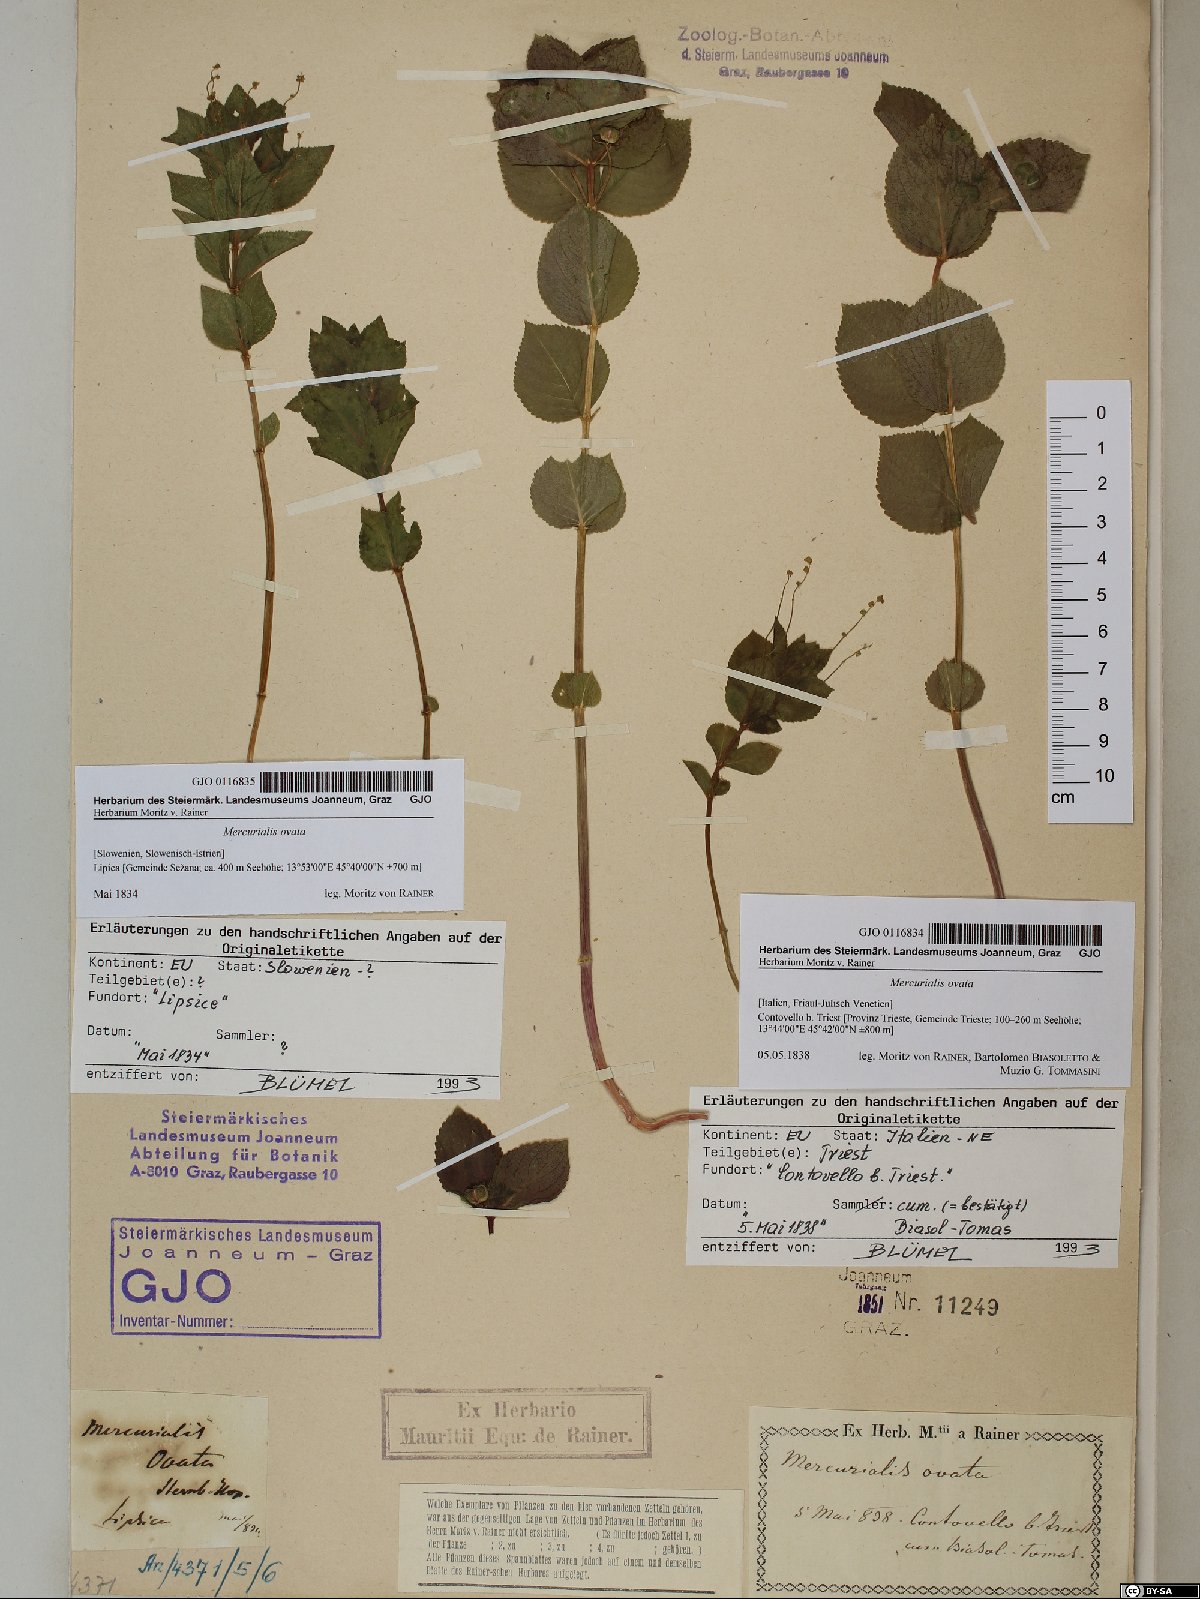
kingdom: Plantae
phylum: Tracheophyta
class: Magnoliopsida
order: Malpighiales
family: Euphorbiaceae
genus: Mercurialis
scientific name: Mercurialis ovata
